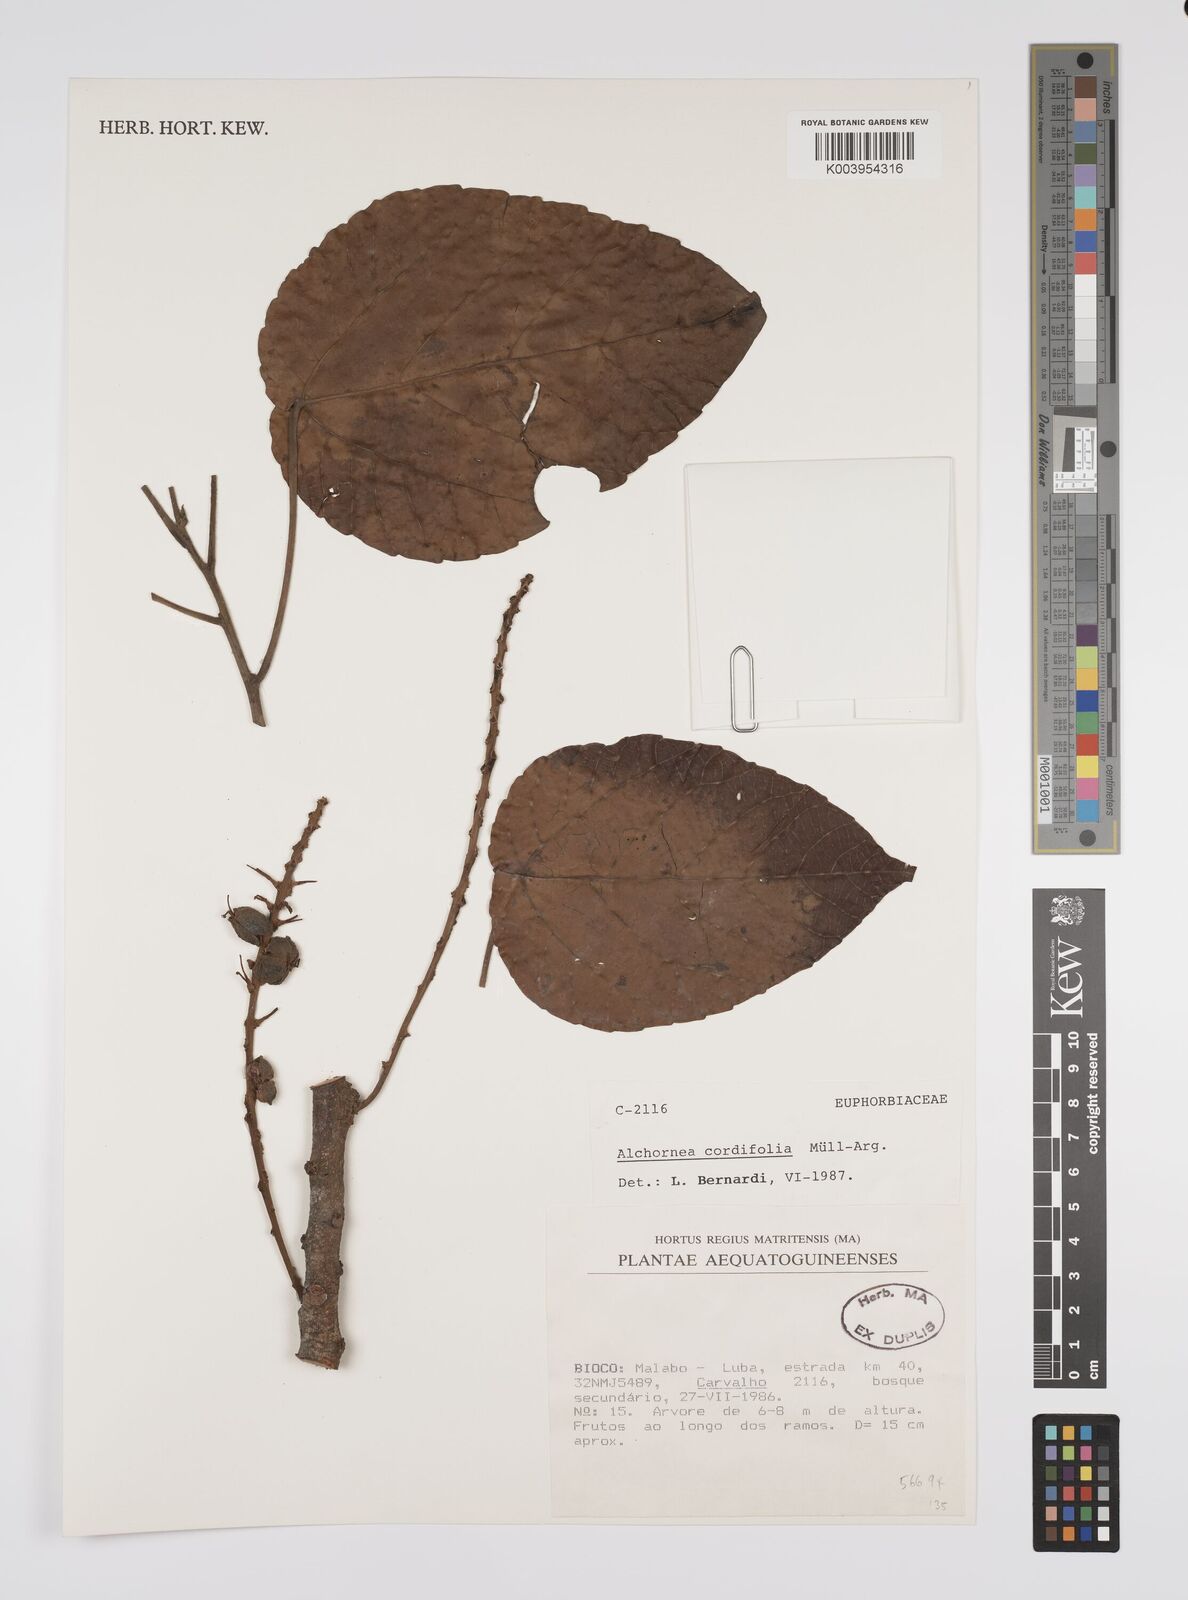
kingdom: Plantae
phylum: Tracheophyta
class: Magnoliopsida
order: Malpighiales
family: Euphorbiaceae
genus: Alchornea
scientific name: Alchornea cordifolia
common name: Christmasbush
